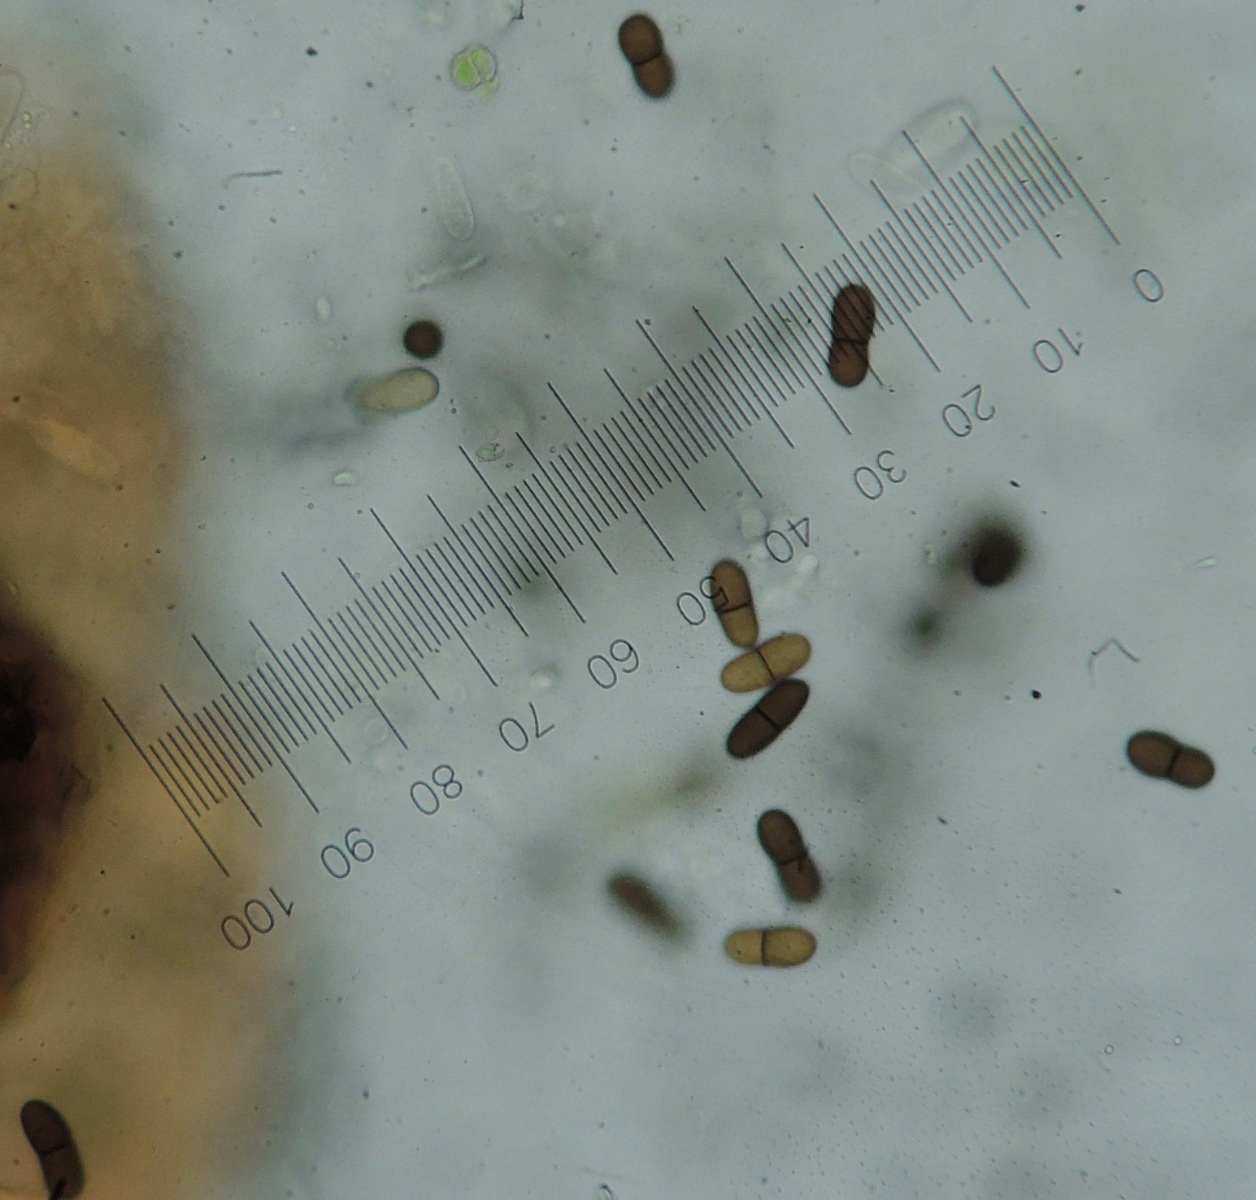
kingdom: Fungi
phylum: Ascomycota
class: Dothideomycetes
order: Botryosphaeriales
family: Botryosphaeriaceae
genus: Diplodia
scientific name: Diplodia rubi
